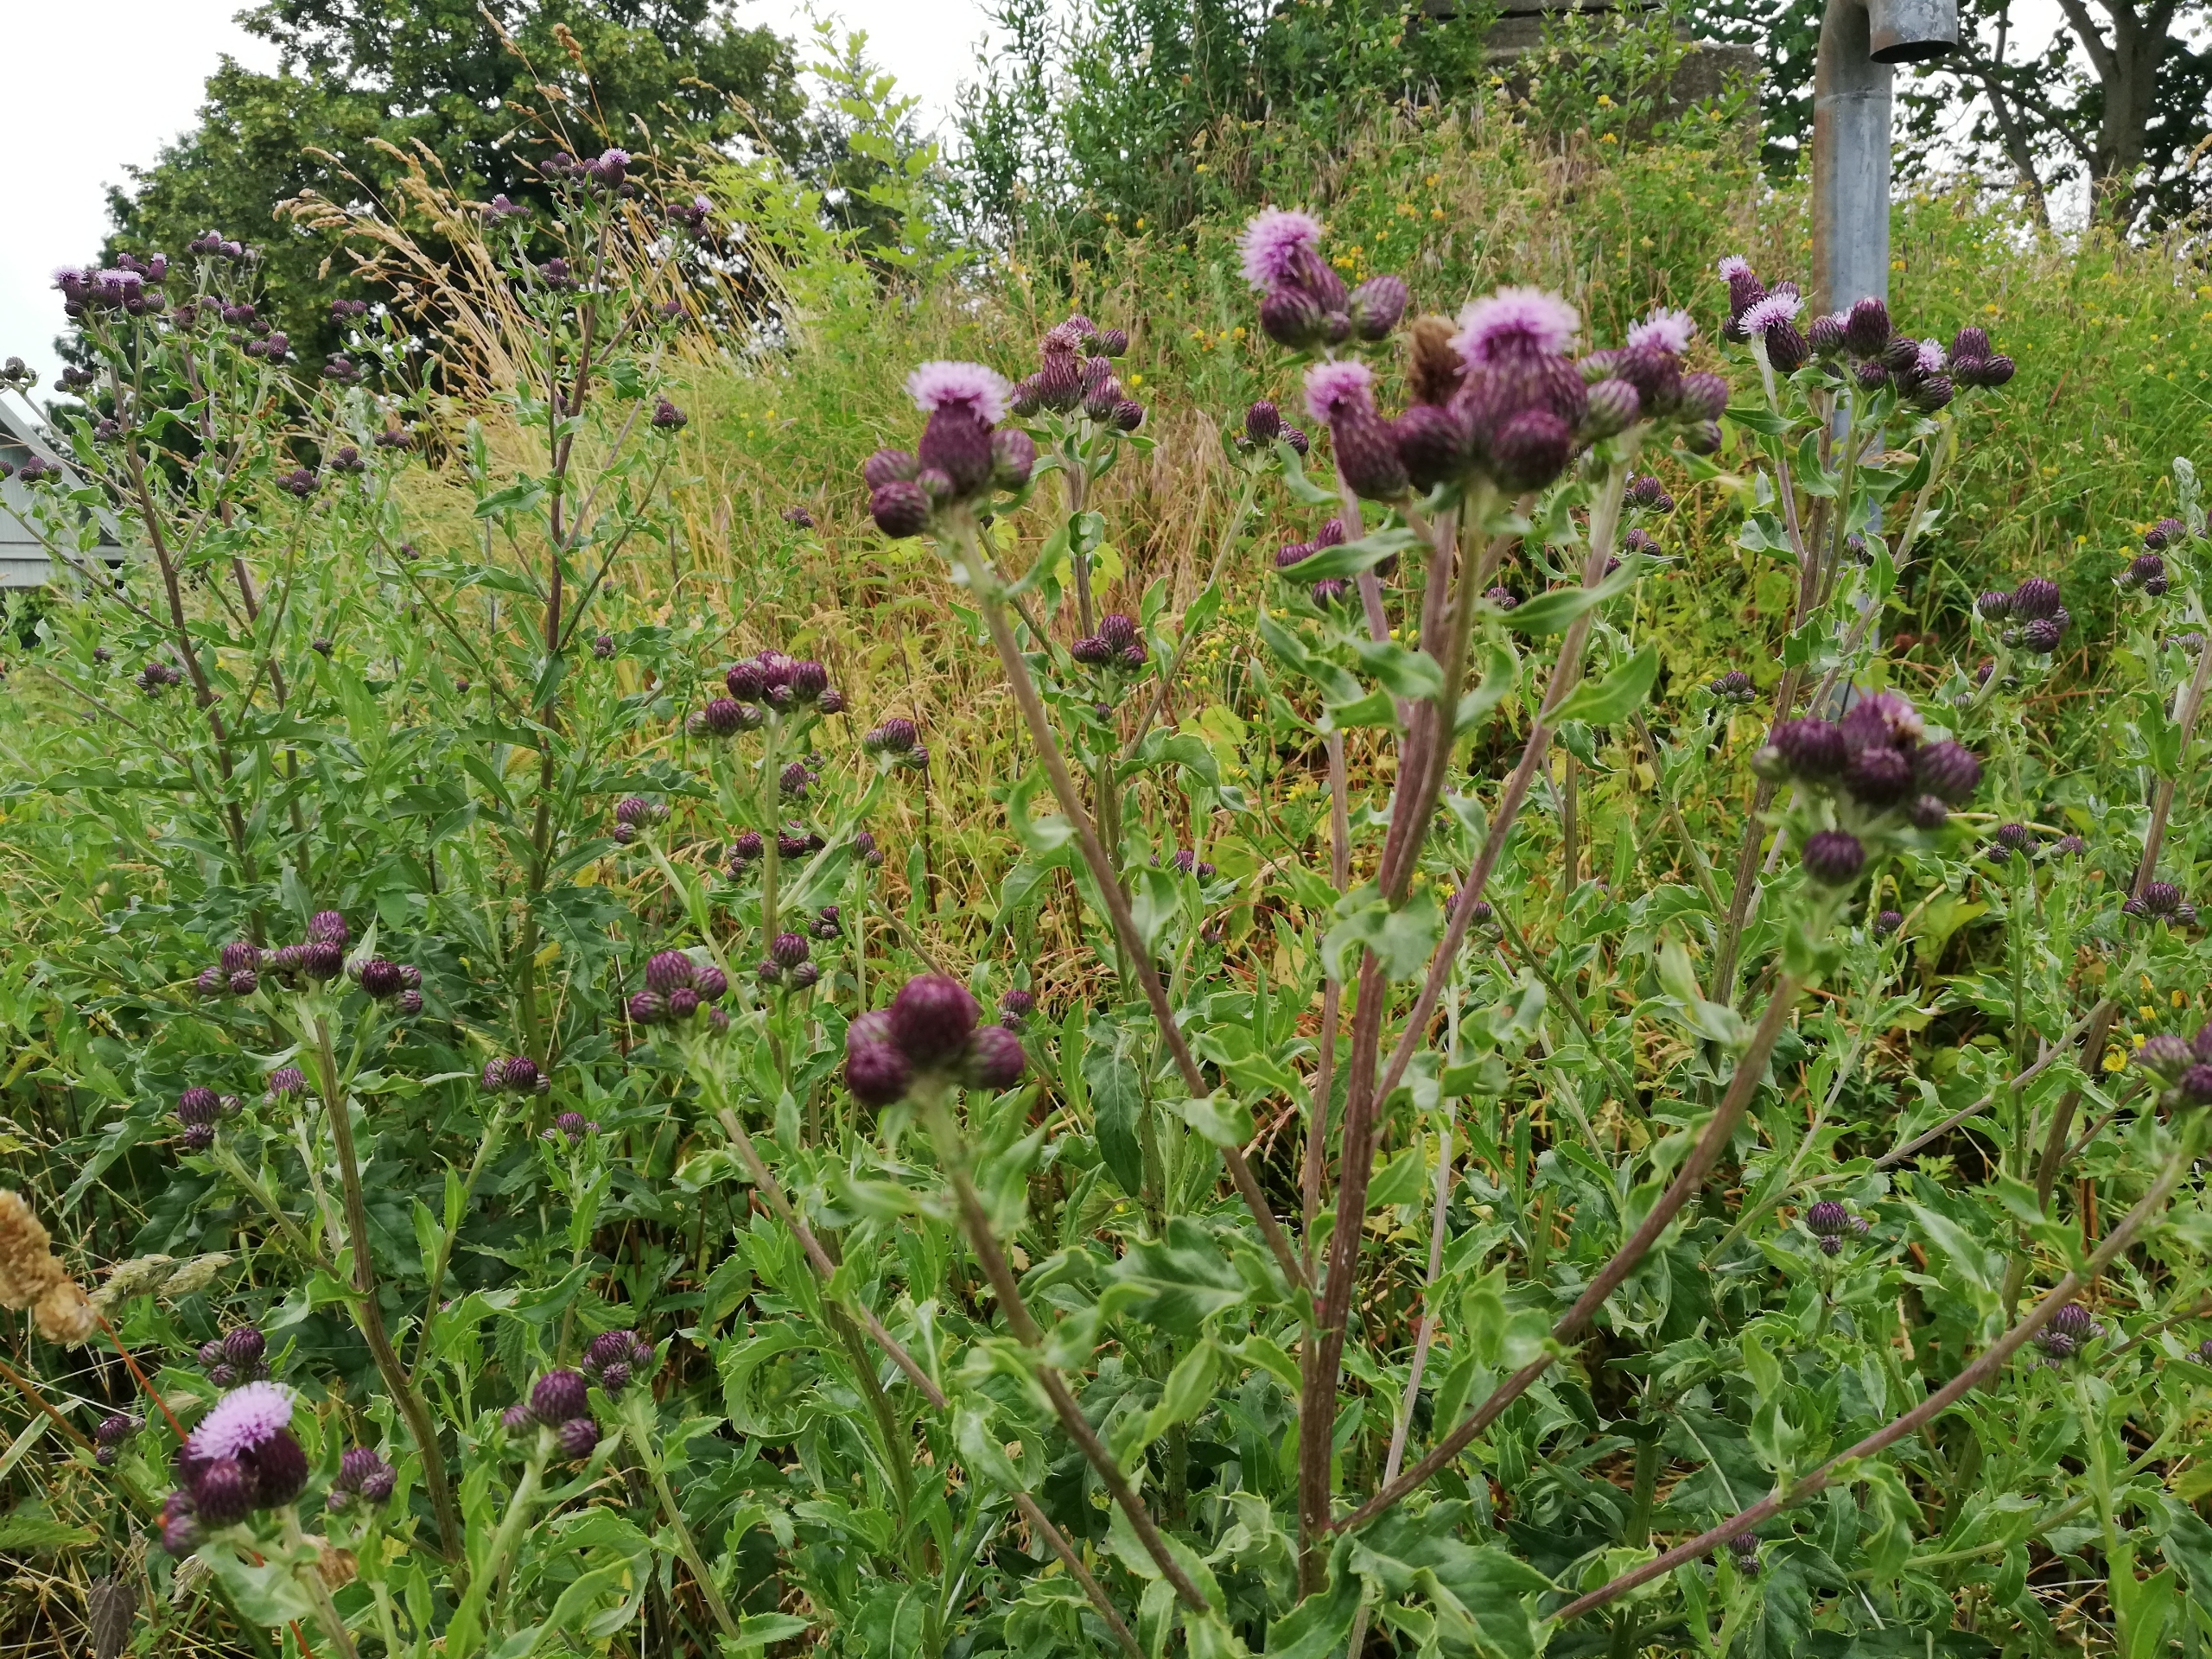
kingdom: Plantae
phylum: Tracheophyta
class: Magnoliopsida
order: Asterales
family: Asteraceae
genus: Cirsium
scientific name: Cirsium arvense
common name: Ager-tidsel
